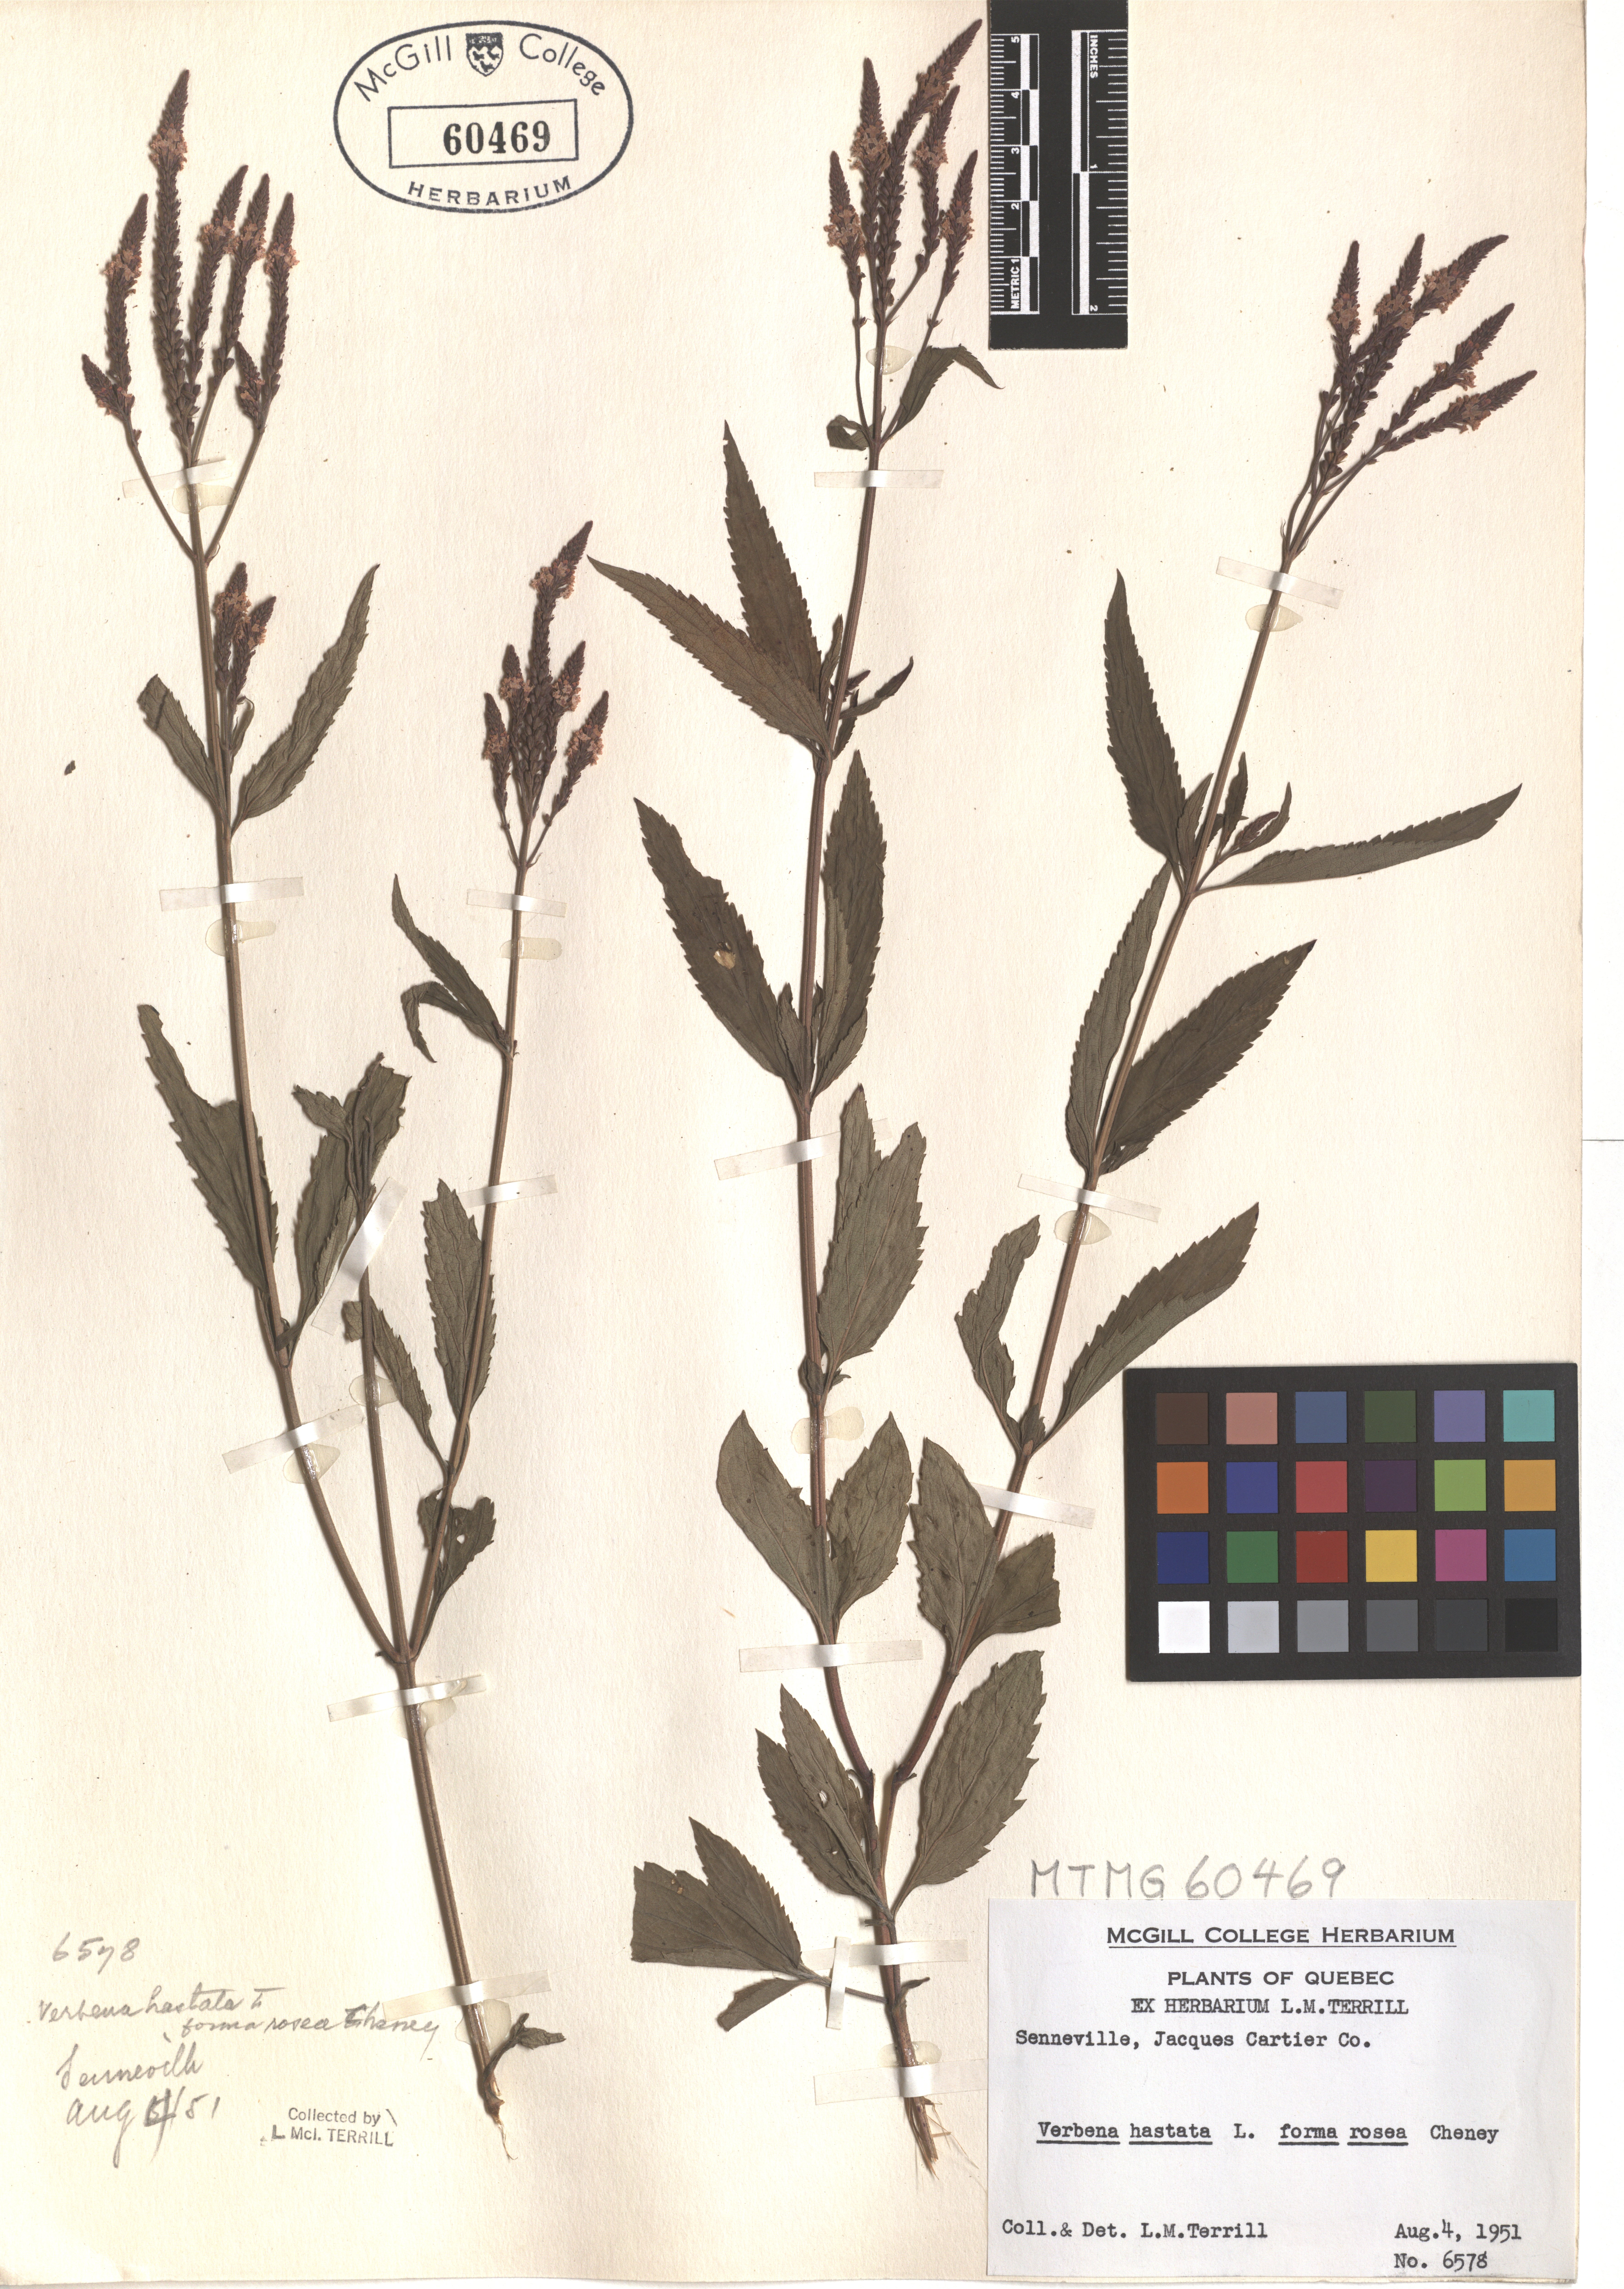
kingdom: Plantae
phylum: Tracheophyta
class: Magnoliopsida
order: Lamiales
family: Verbenaceae
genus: Verbena
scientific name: Verbena hastata
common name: American blue vervain
